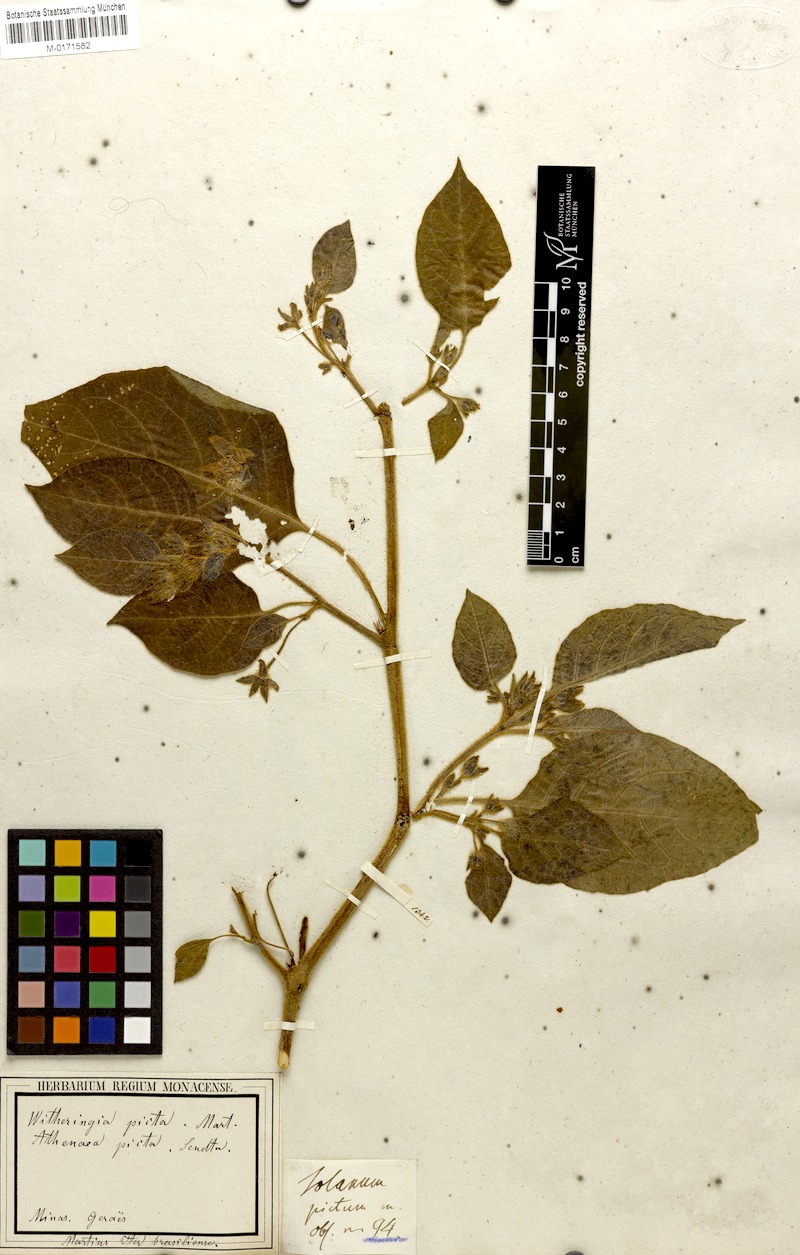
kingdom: Plantae
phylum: Tracheophyta
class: Magnoliopsida
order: Solanales
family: Solanaceae
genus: Athenaea
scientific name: Athenaea picta
